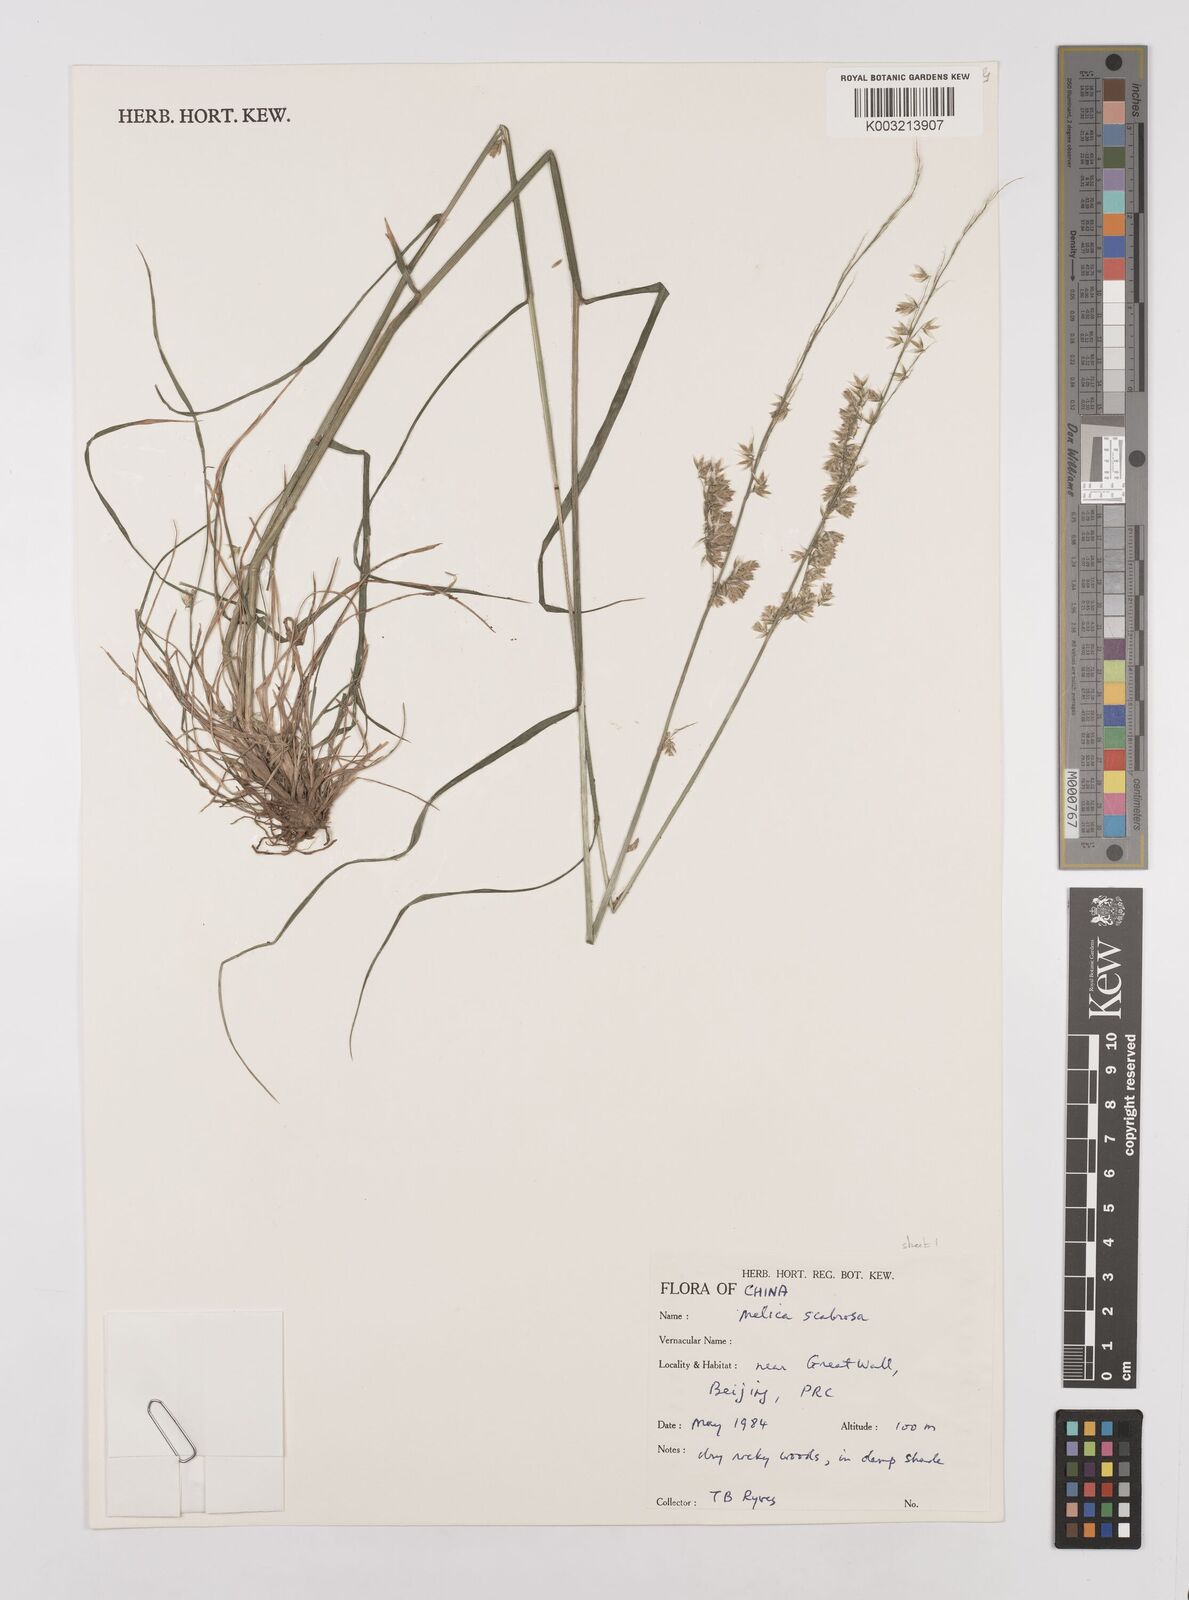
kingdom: Plantae
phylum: Tracheophyta
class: Liliopsida
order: Poales
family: Poaceae
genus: Melica
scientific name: Melica scabrosa
